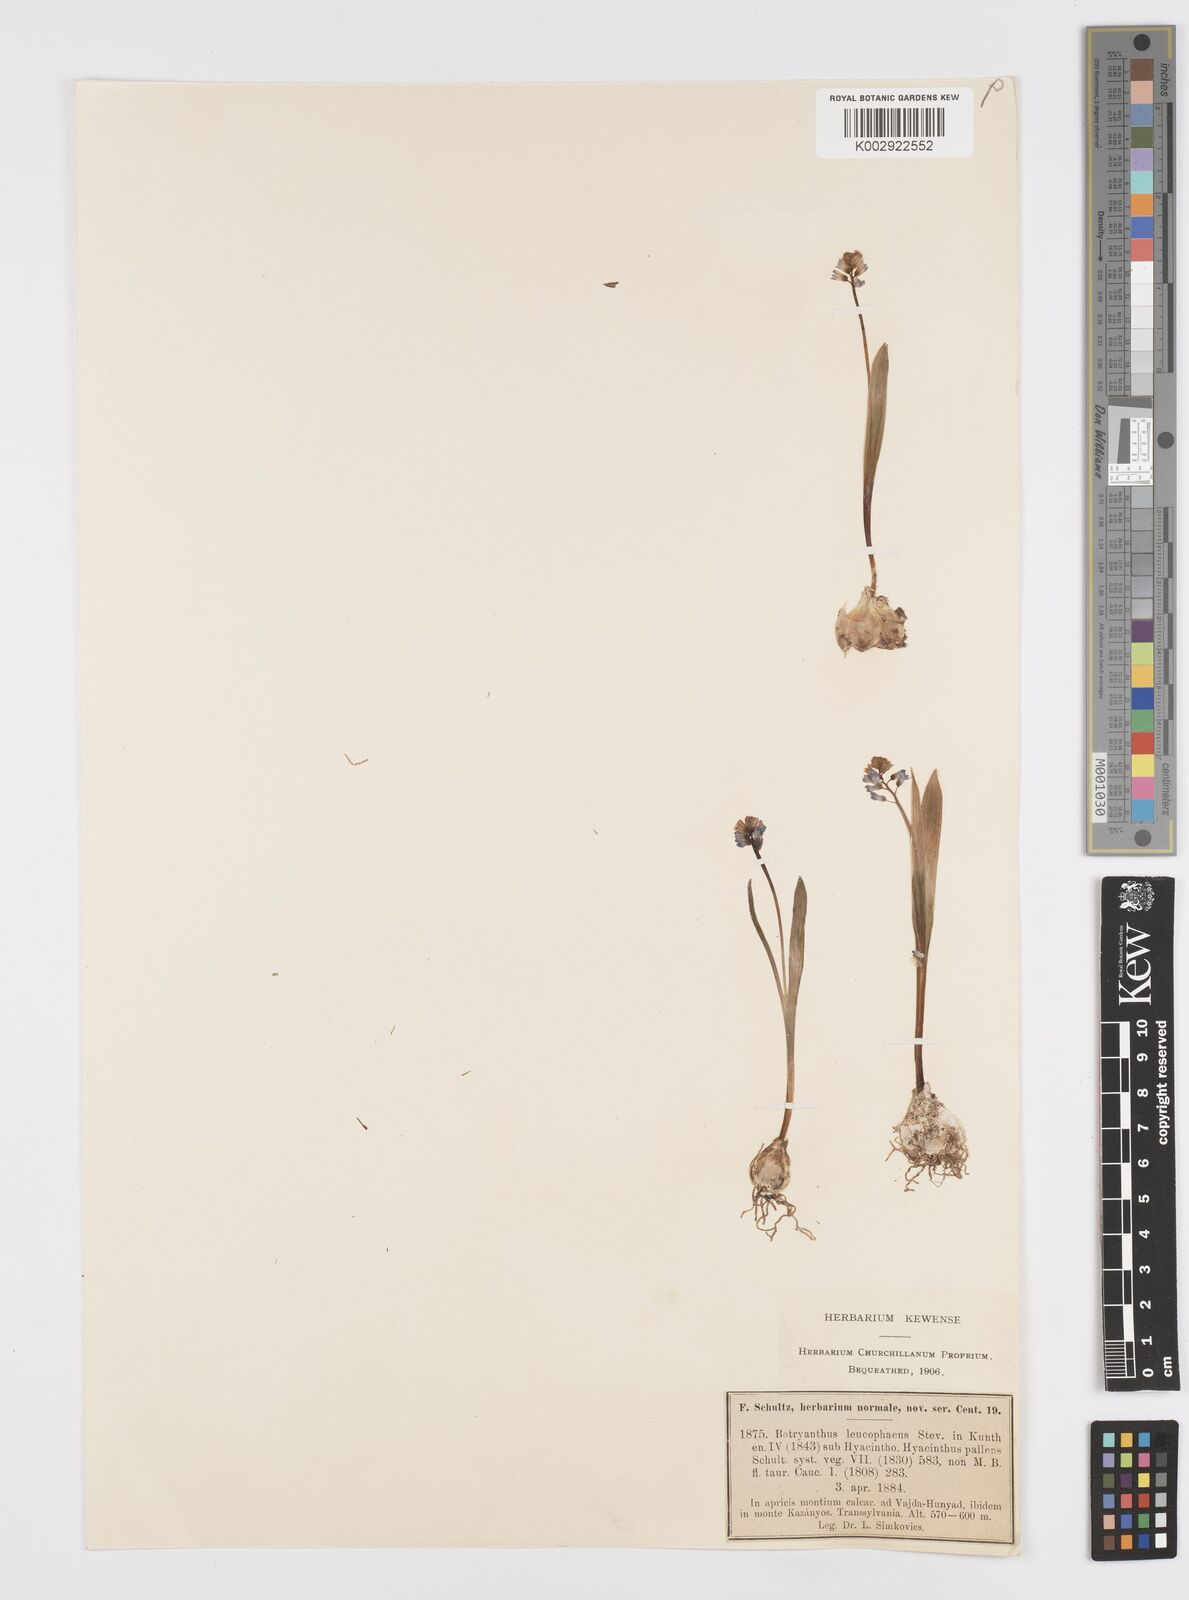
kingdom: Plantae
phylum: Tracheophyta
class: Liliopsida
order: Asparagales
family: Asparagaceae
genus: Hyacinthella
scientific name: Hyacinthella leucophaea
